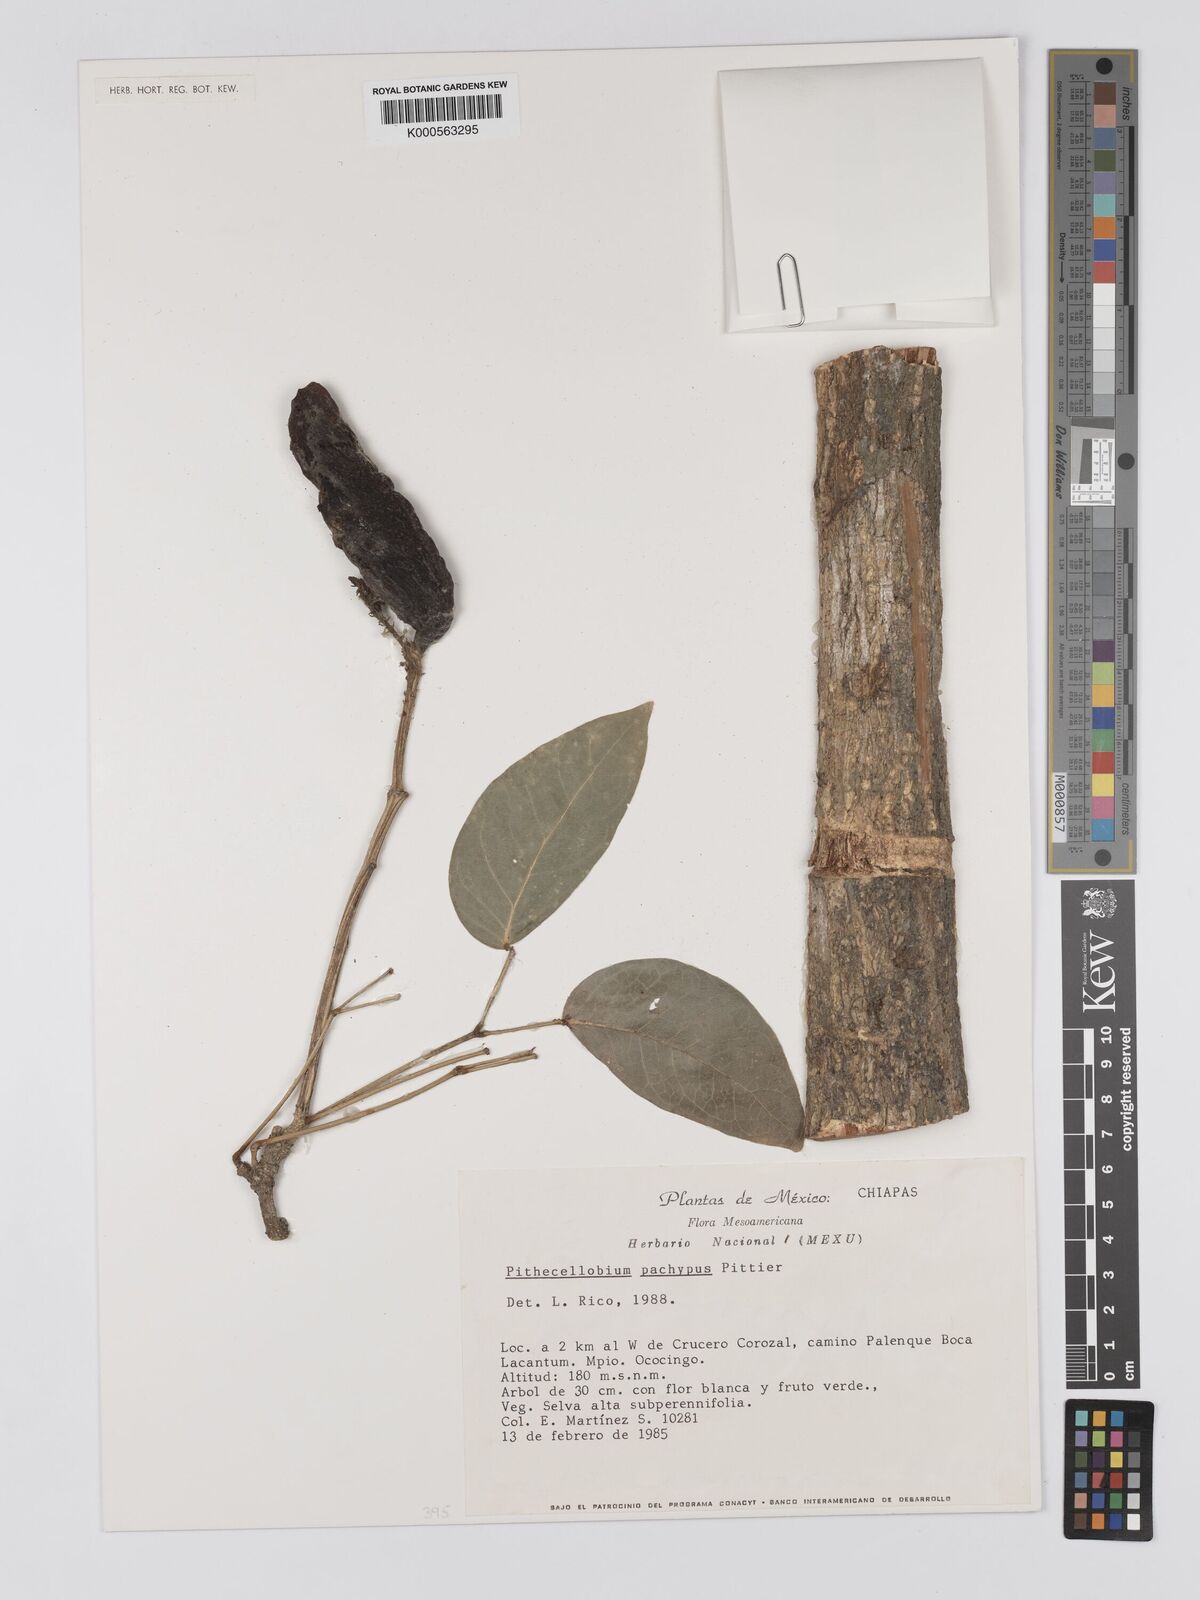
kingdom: Plantae
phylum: Tracheophyta
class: Magnoliopsida
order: Fabales
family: Fabaceae
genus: Pithecellobium
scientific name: Pithecellobium lanceolatum
